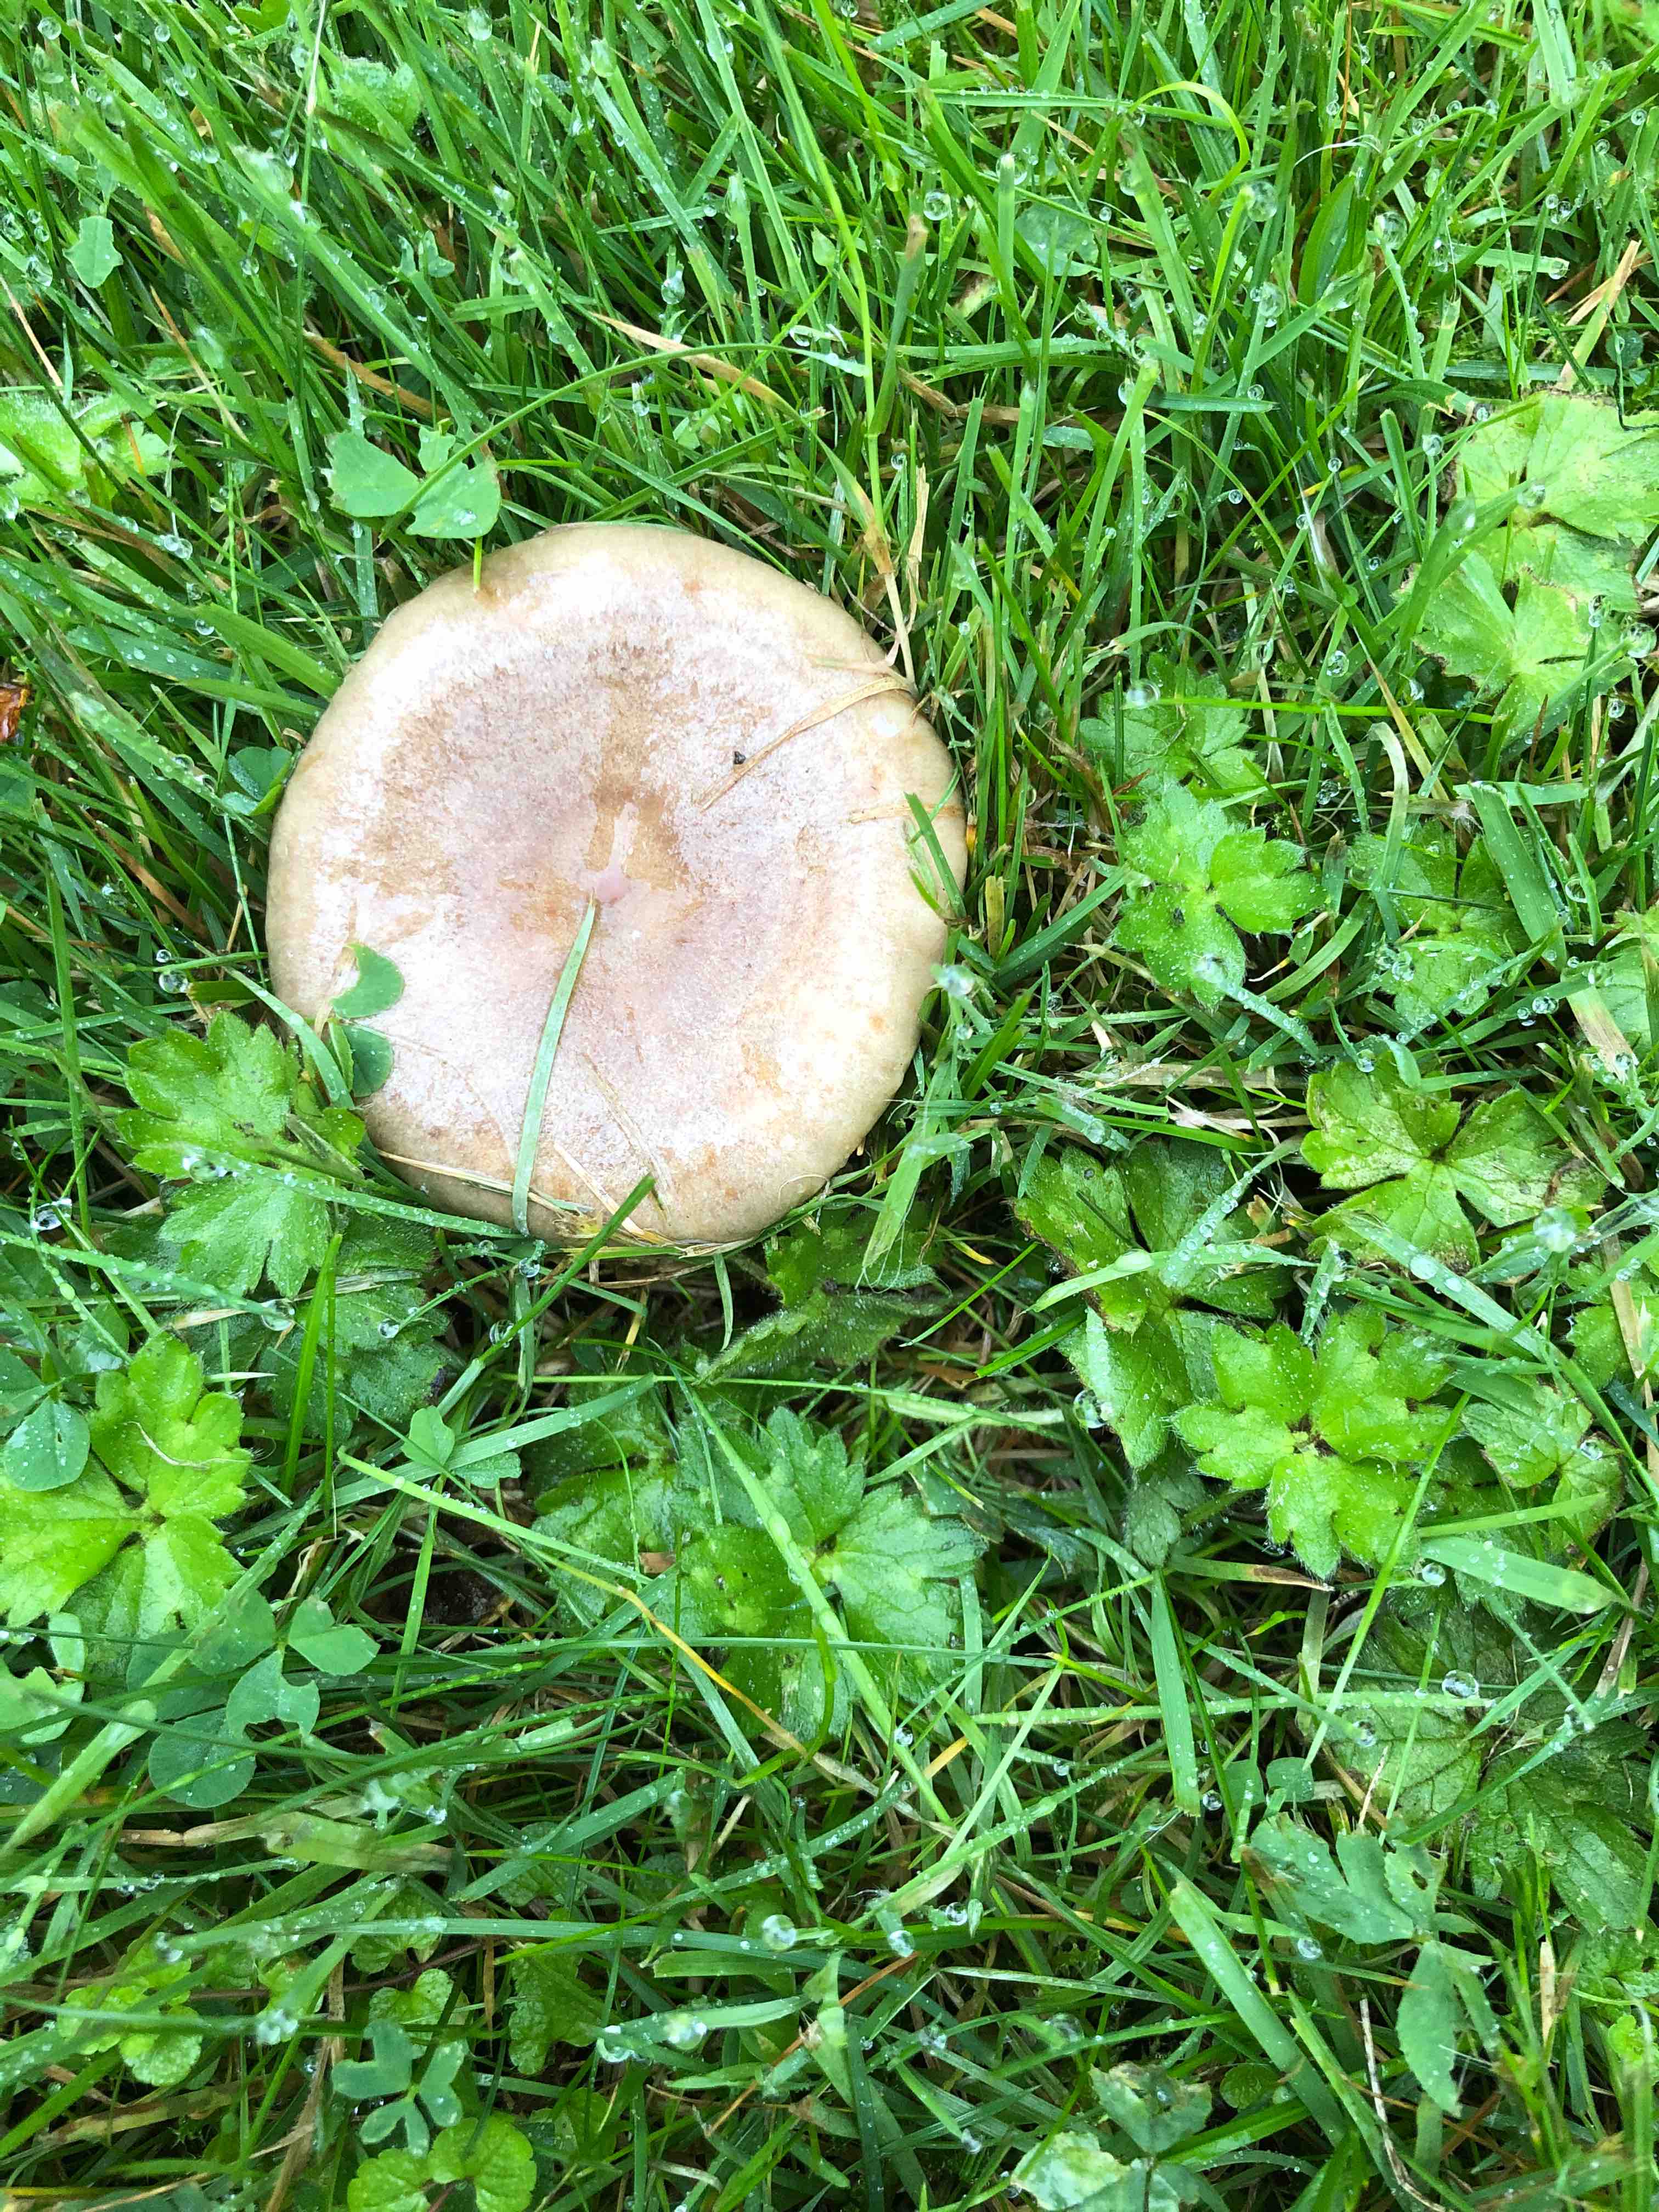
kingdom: Fungi
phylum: Basidiomycota
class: Agaricomycetes
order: Russulales
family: Russulaceae
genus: Lactarius
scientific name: Lactarius pyrogalus
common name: hassel-mælkehat
